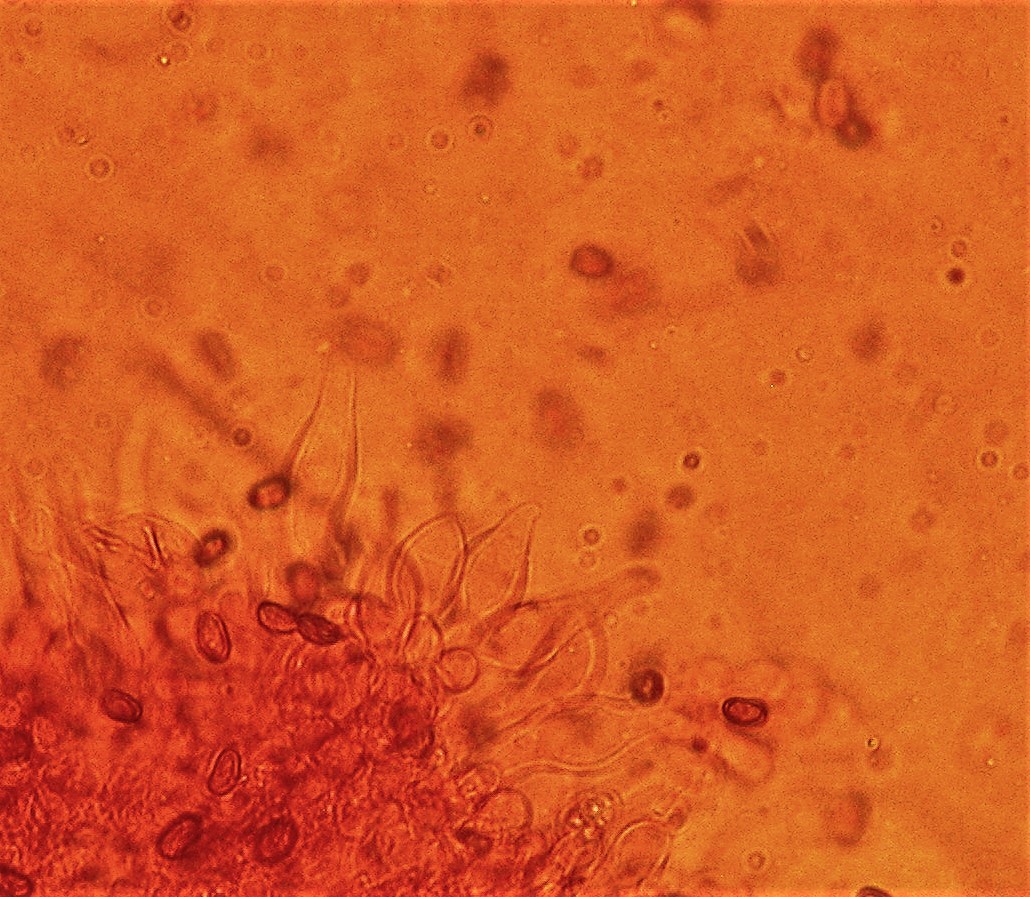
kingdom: Fungi
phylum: Basidiomycota
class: Agaricomycetes
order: Agaricales
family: Psathyrellaceae
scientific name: Psathyrellaceae
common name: mørkhatfamilien
